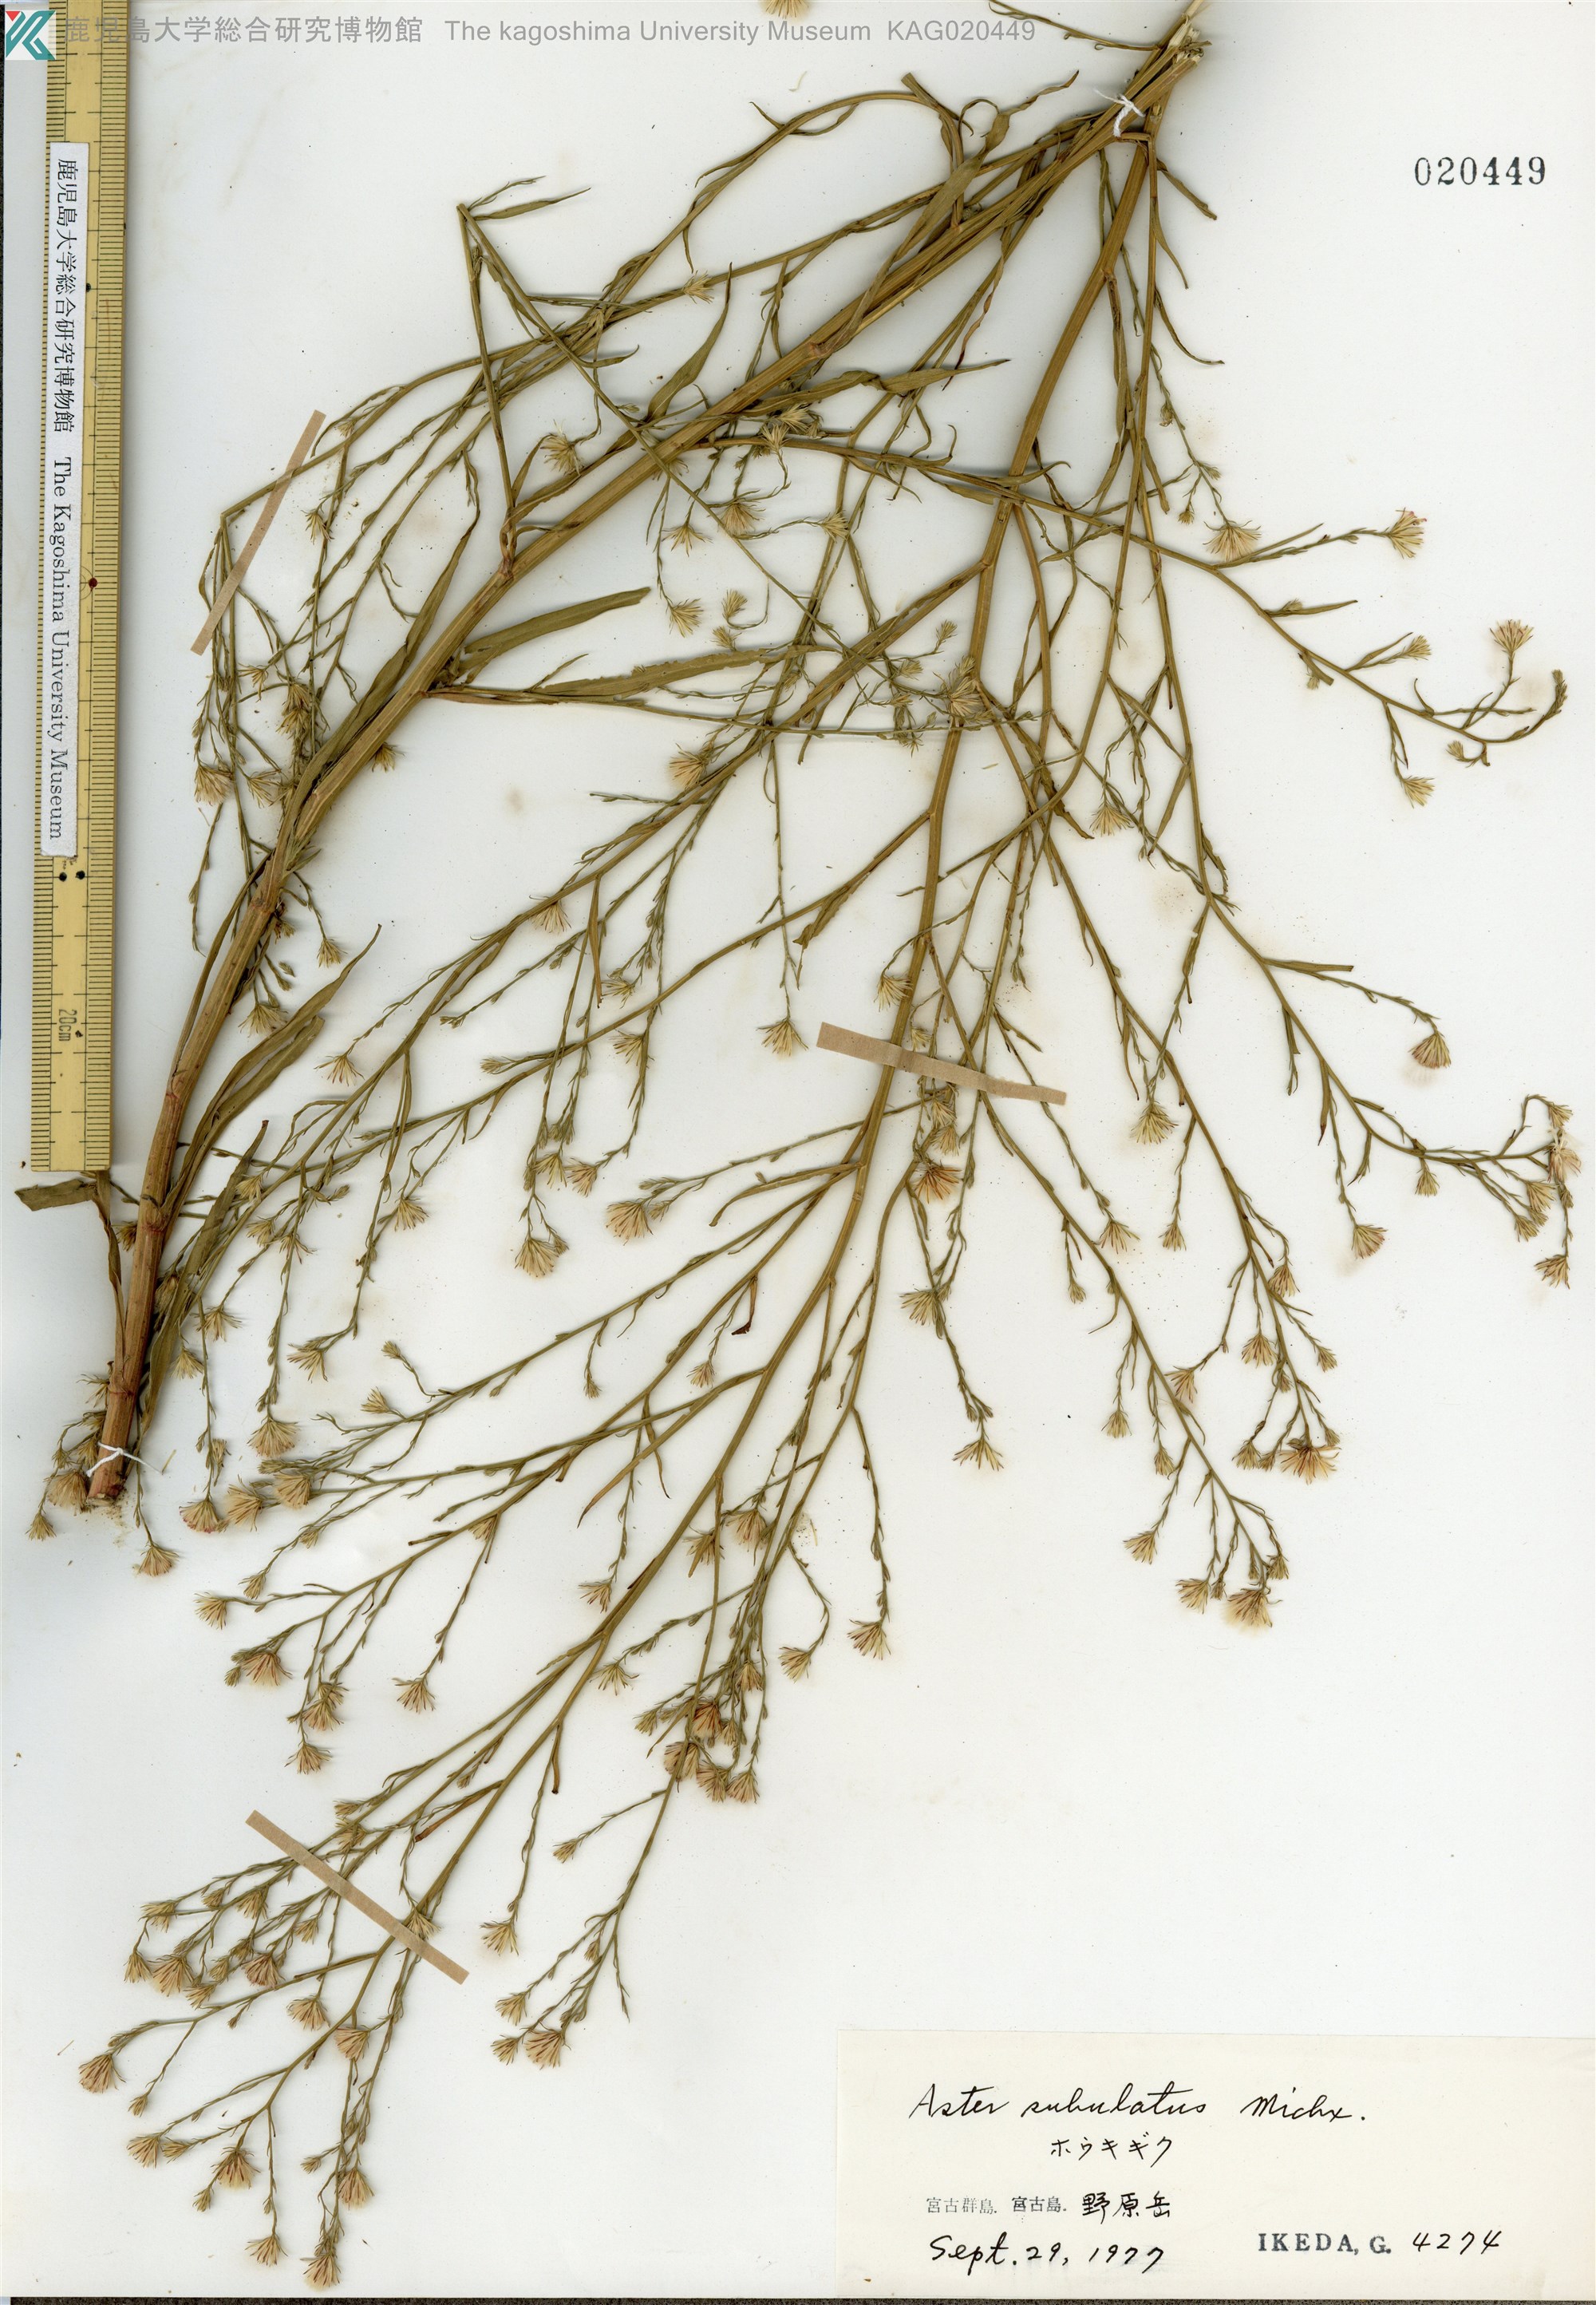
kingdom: Plantae
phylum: Tracheophyta
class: Magnoliopsida
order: Asterales
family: Asteraceae
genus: Symphyotrichum
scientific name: Symphyotrichum subulatum
